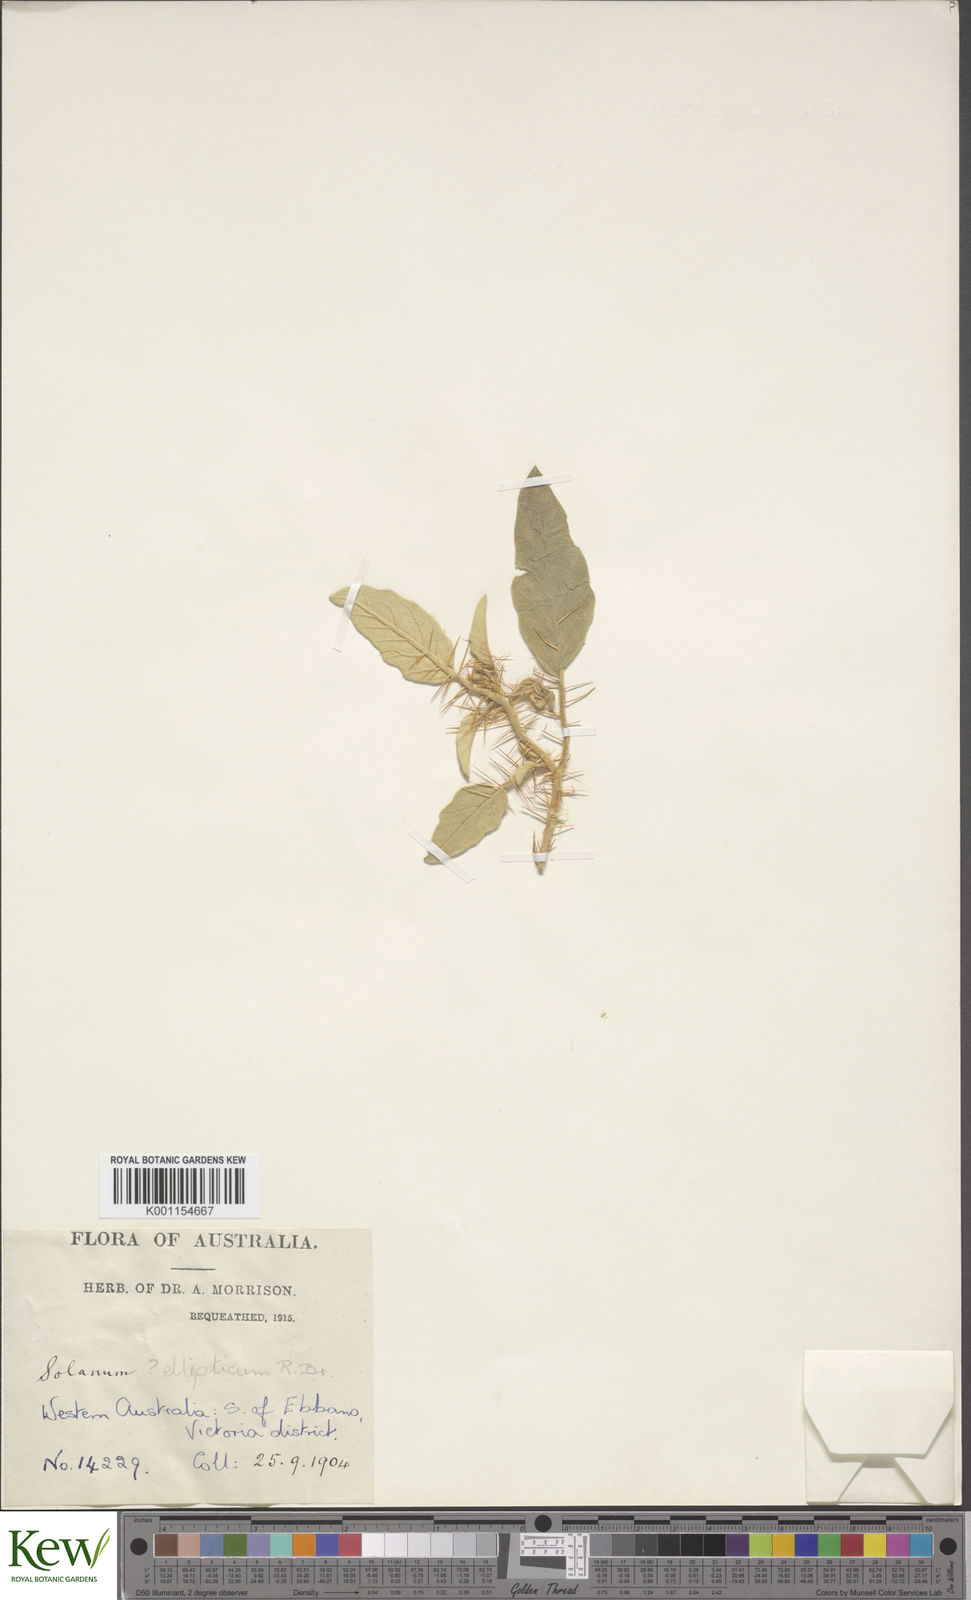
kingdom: Plantae
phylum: Tracheophyta
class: Magnoliopsida
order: Solanales
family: Solanaceae
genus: Solanum
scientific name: Solanum
